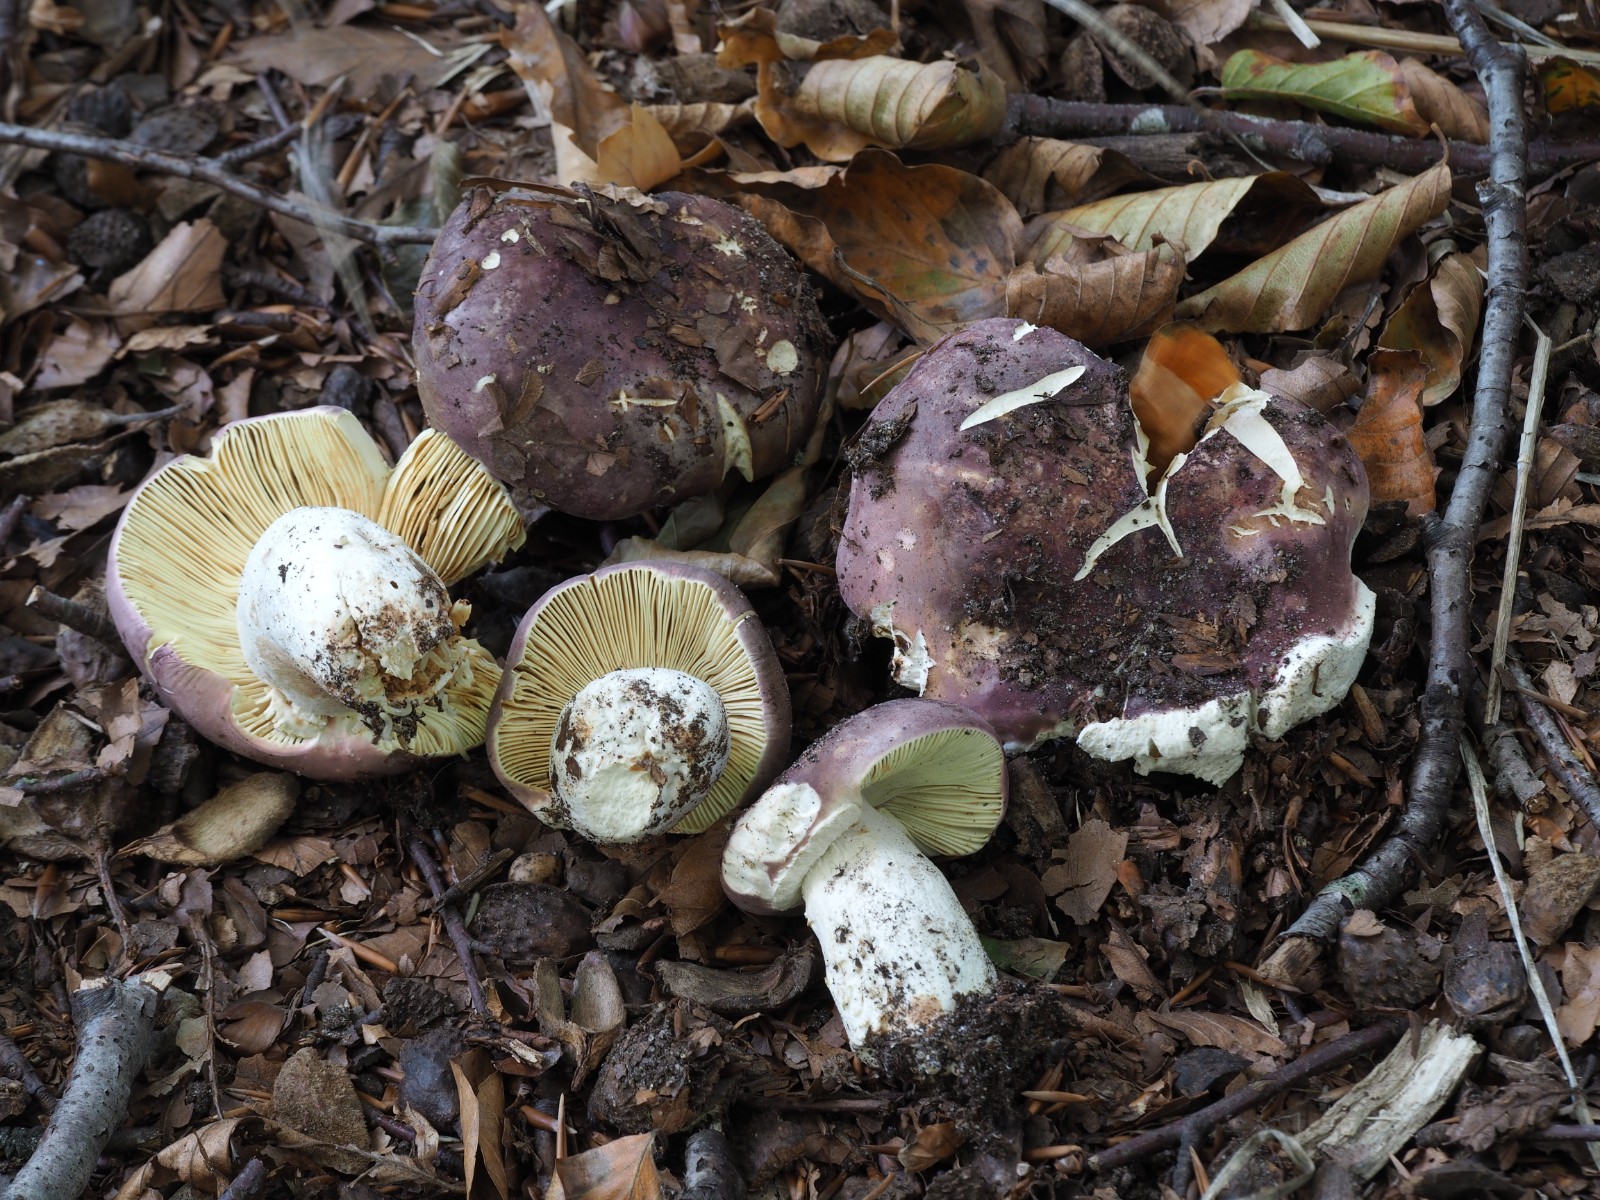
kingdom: Fungi
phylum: Basidiomycota
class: Agaricomycetes
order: Russulales
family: Russulaceae
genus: Russula
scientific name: Russula olivacea
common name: stor skørhat
